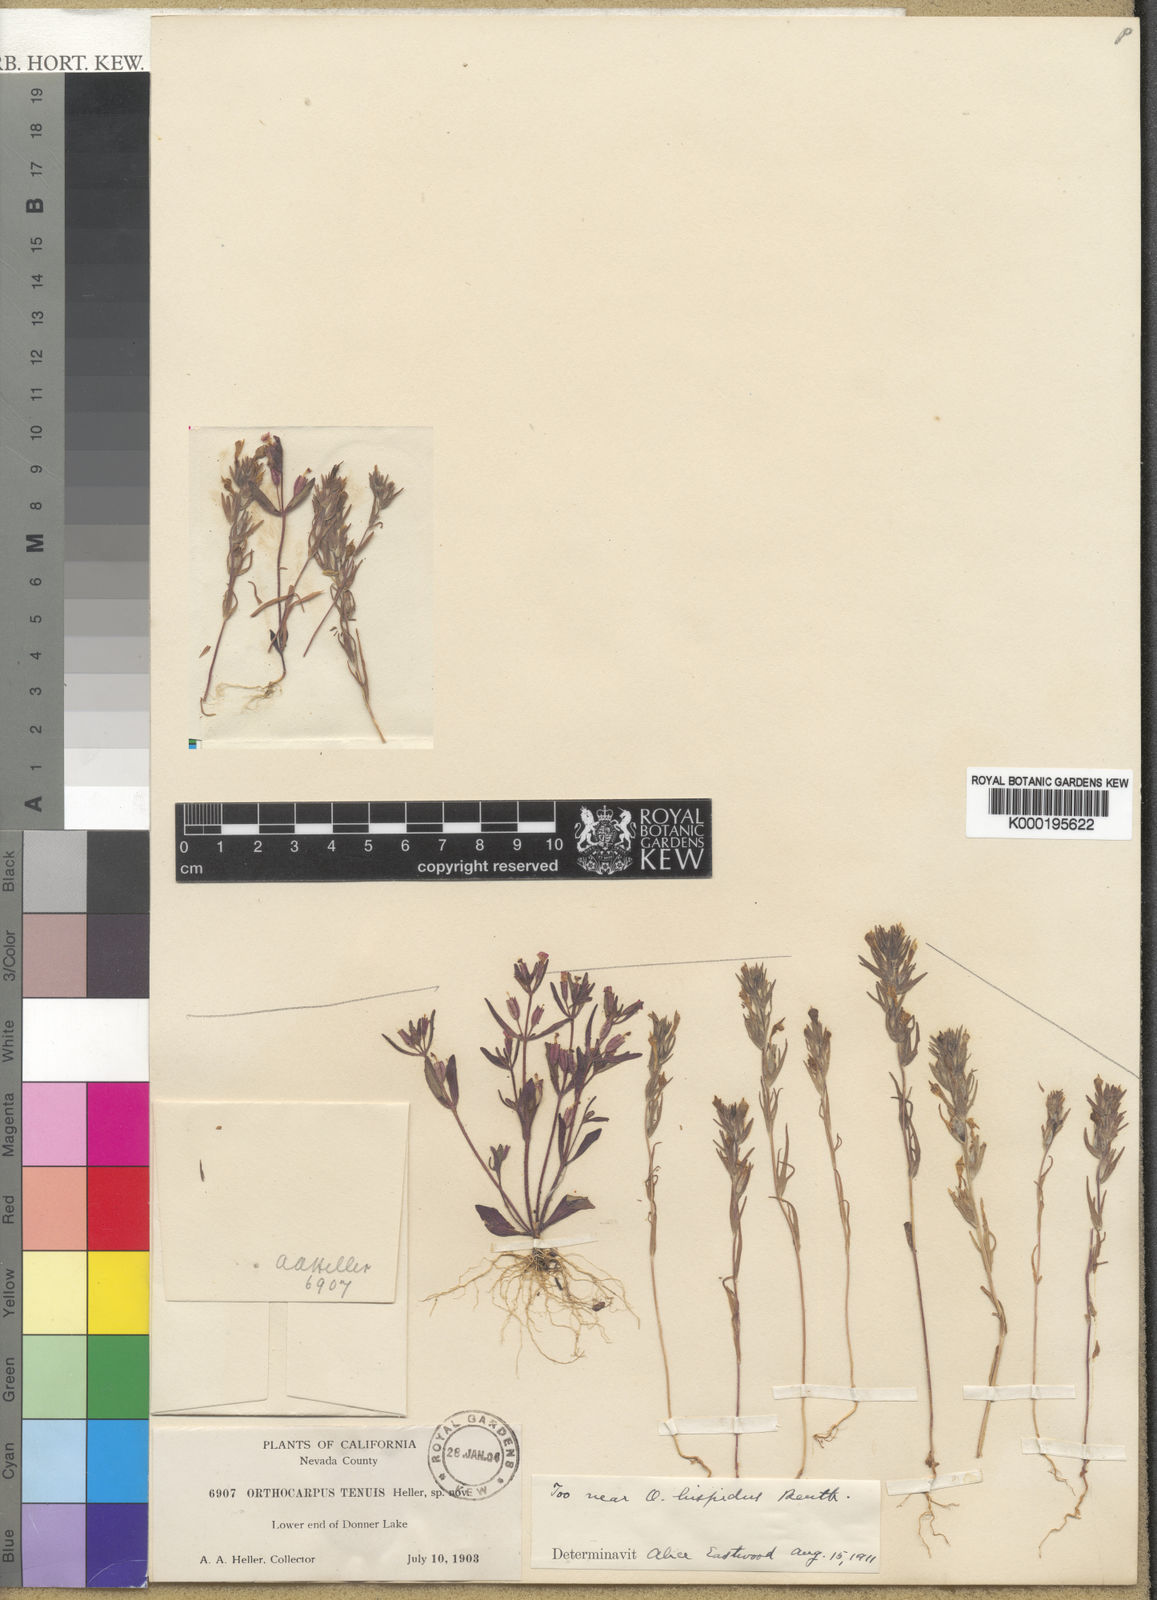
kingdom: Plantae
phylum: Tracheophyta
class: Magnoliopsida
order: Lamiales
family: Orobanchaceae
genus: Castilleja
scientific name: Castilleja tenuis
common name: Hairy indian paintbrush
